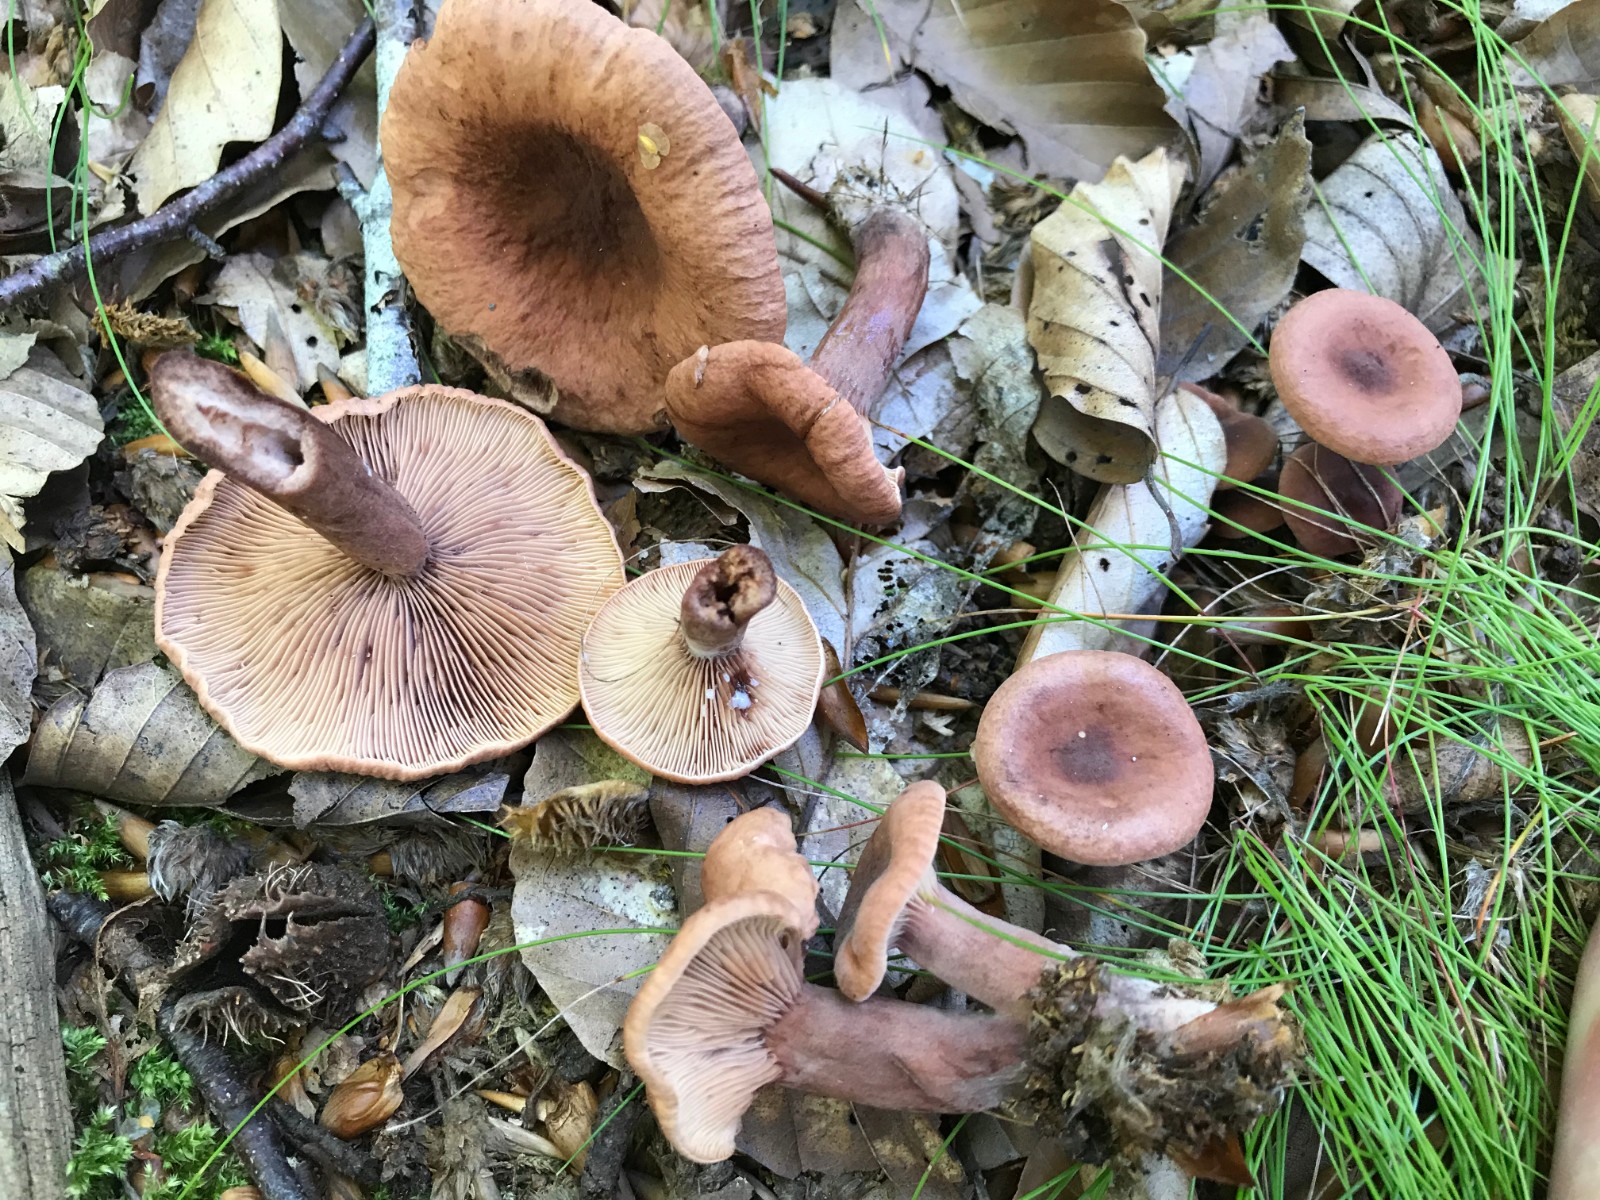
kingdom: Fungi
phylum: Basidiomycota
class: Agaricomycetes
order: Russulales
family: Russulaceae
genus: Lactarius
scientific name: Lactarius camphoratus
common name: kamfer-mælkehat
